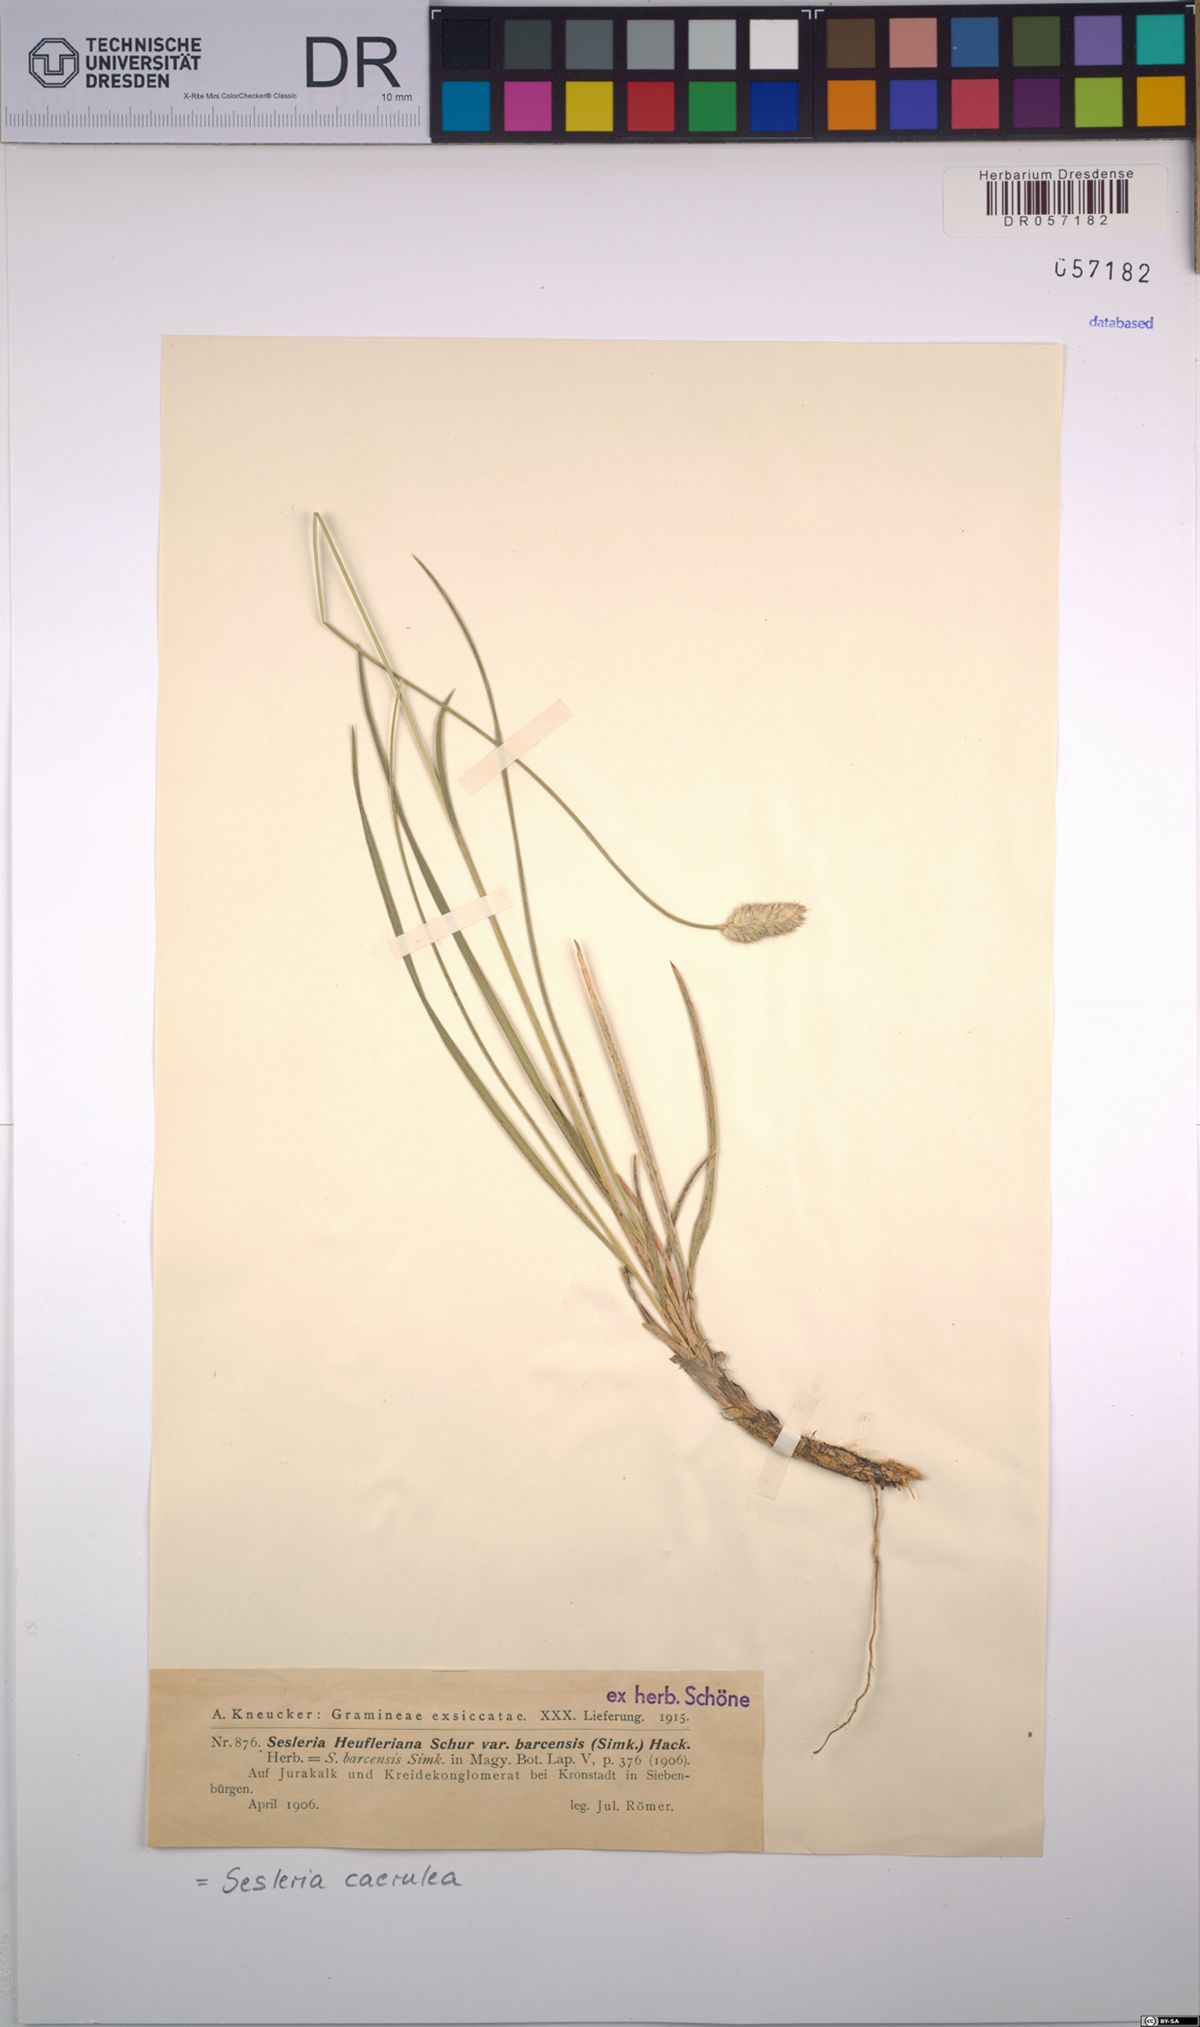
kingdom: Plantae
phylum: Tracheophyta
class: Liliopsida
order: Poales
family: Poaceae
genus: Sesleria
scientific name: Sesleria caerulea
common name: Blue moor-grass
